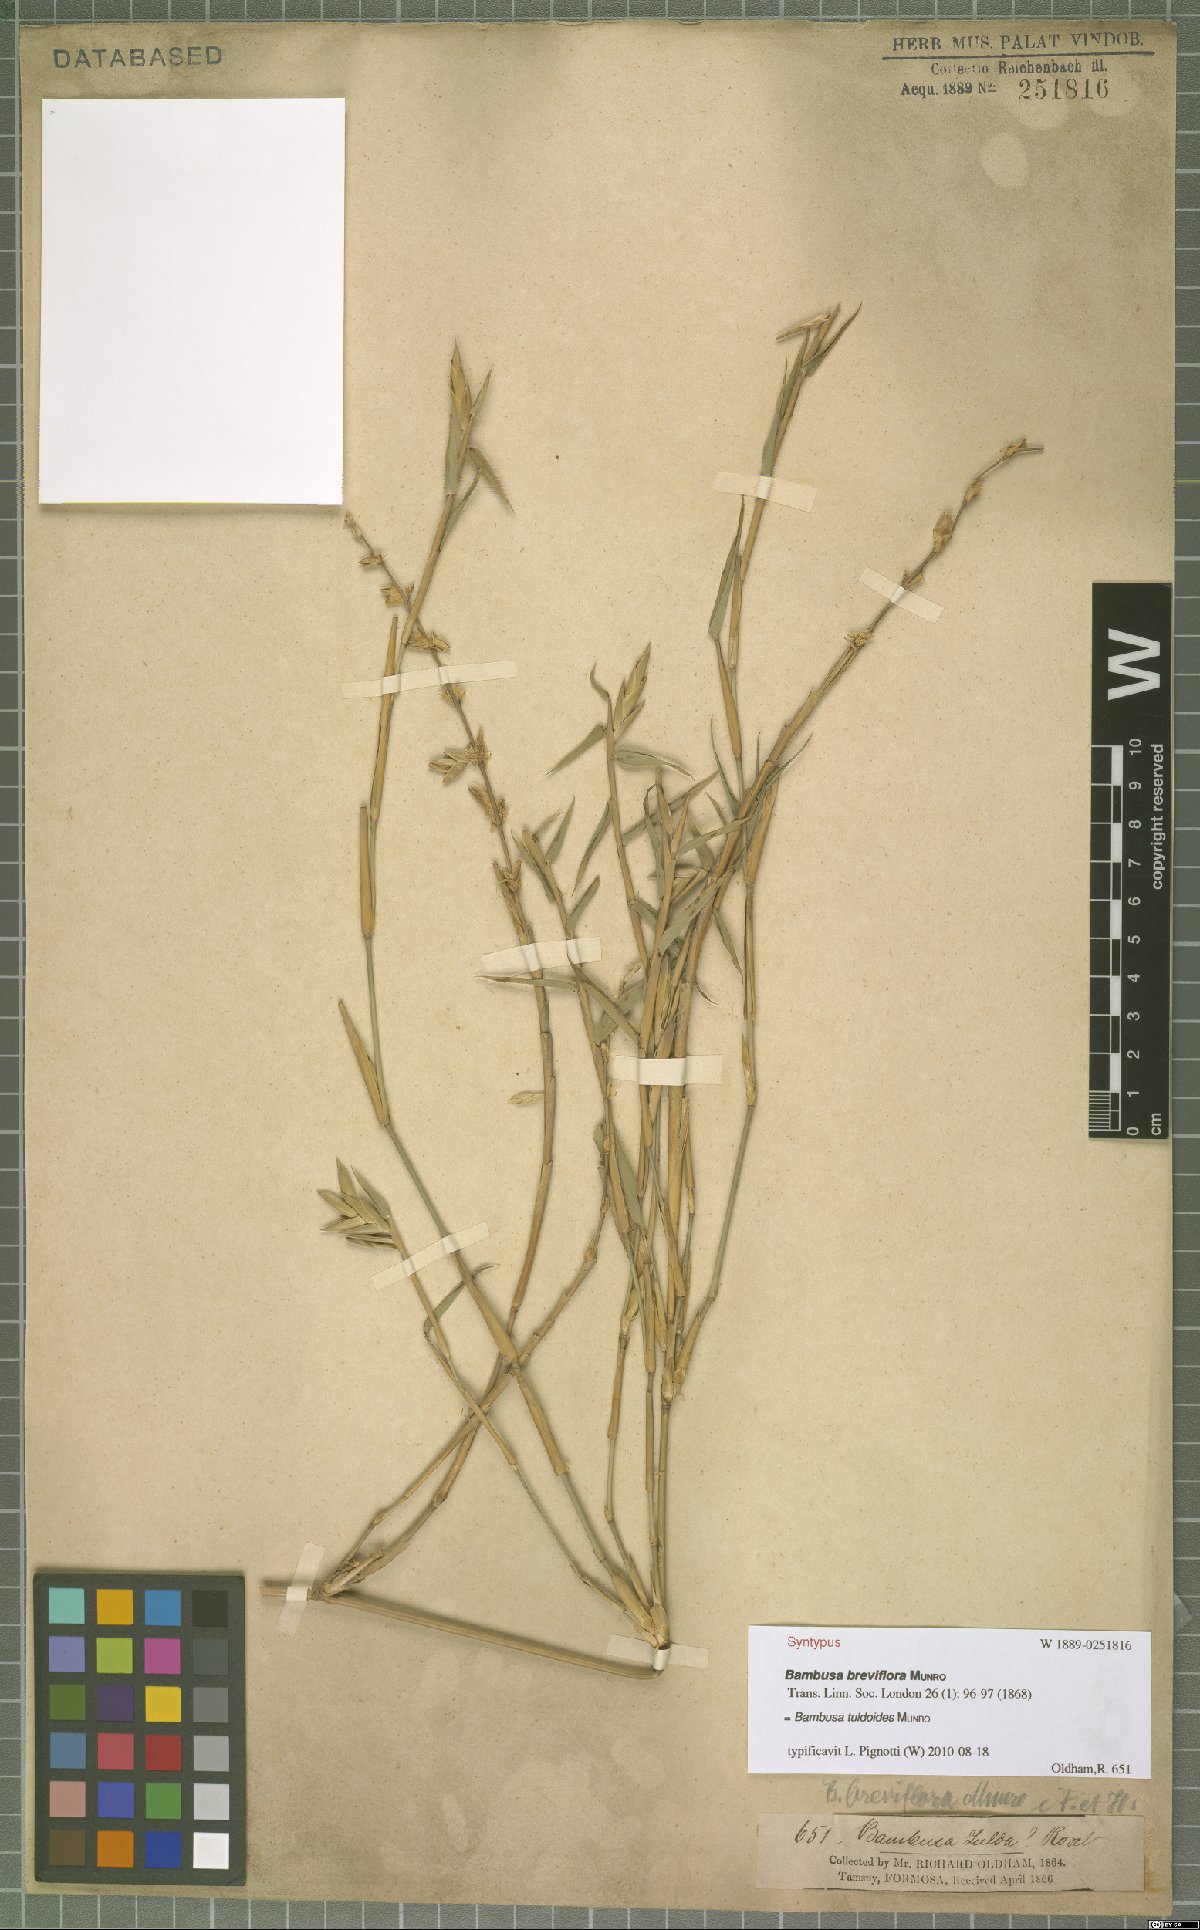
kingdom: Plantae
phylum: Tracheophyta
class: Liliopsida
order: Poales
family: Poaceae
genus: Bambusa
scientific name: Bambusa tuldoides
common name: Verdant bamboo
